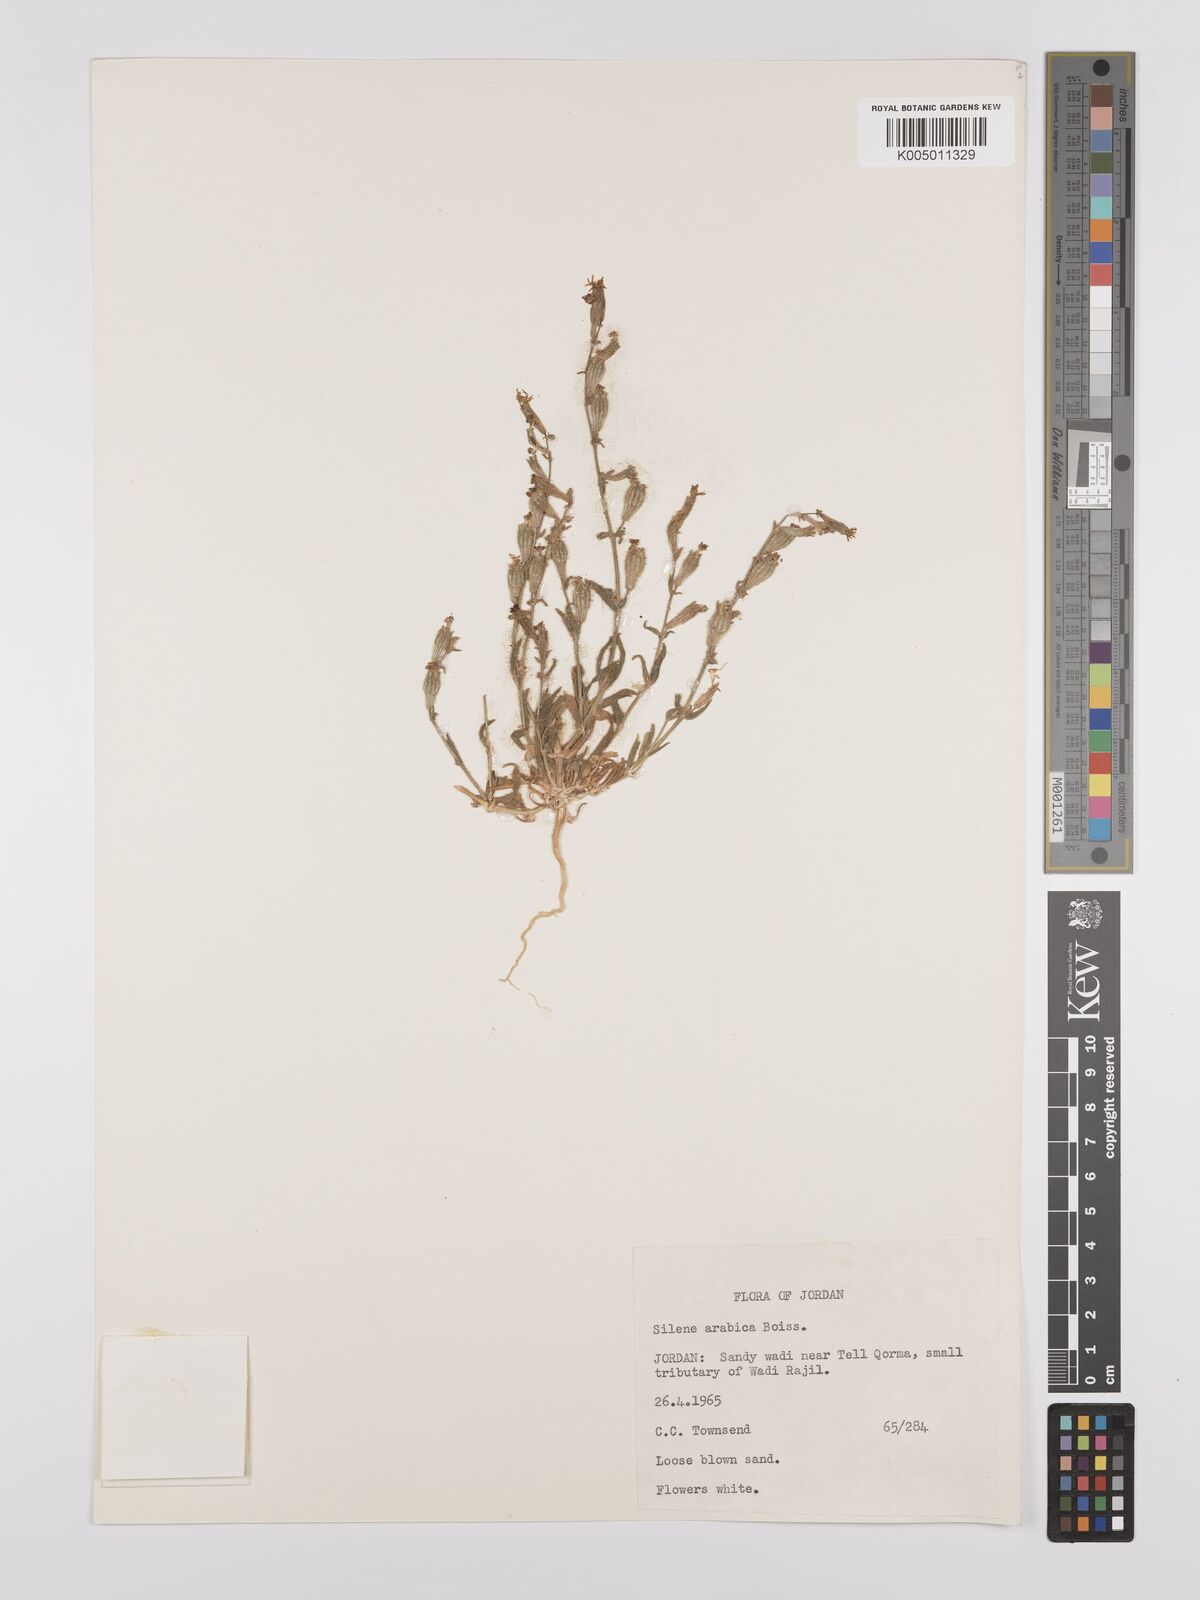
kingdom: Plantae
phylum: Tracheophyta
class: Magnoliopsida
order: Caryophyllales
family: Caryophyllaceae
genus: Silene
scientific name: Silene arabica
